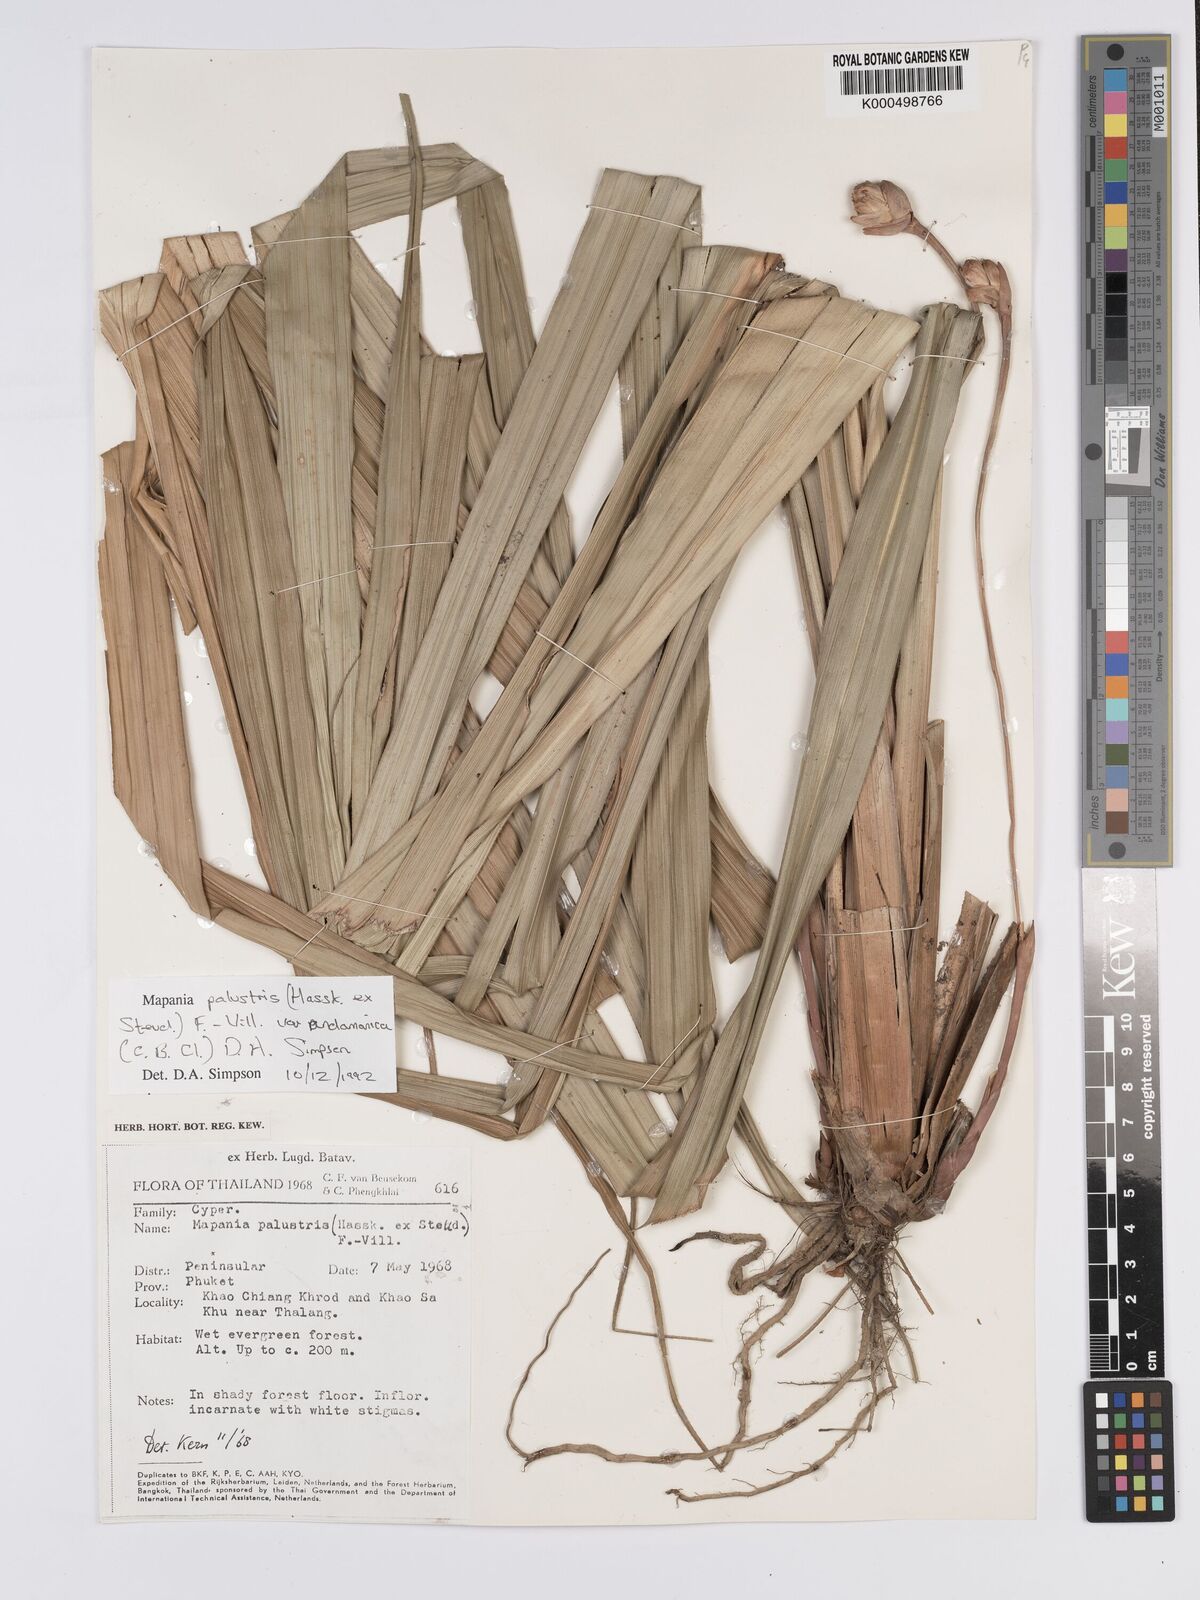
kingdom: Plantae
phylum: Tracheophyta
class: Liliopsida
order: Poales
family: Cyperaceae
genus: Mapania
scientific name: Mapania palustris
